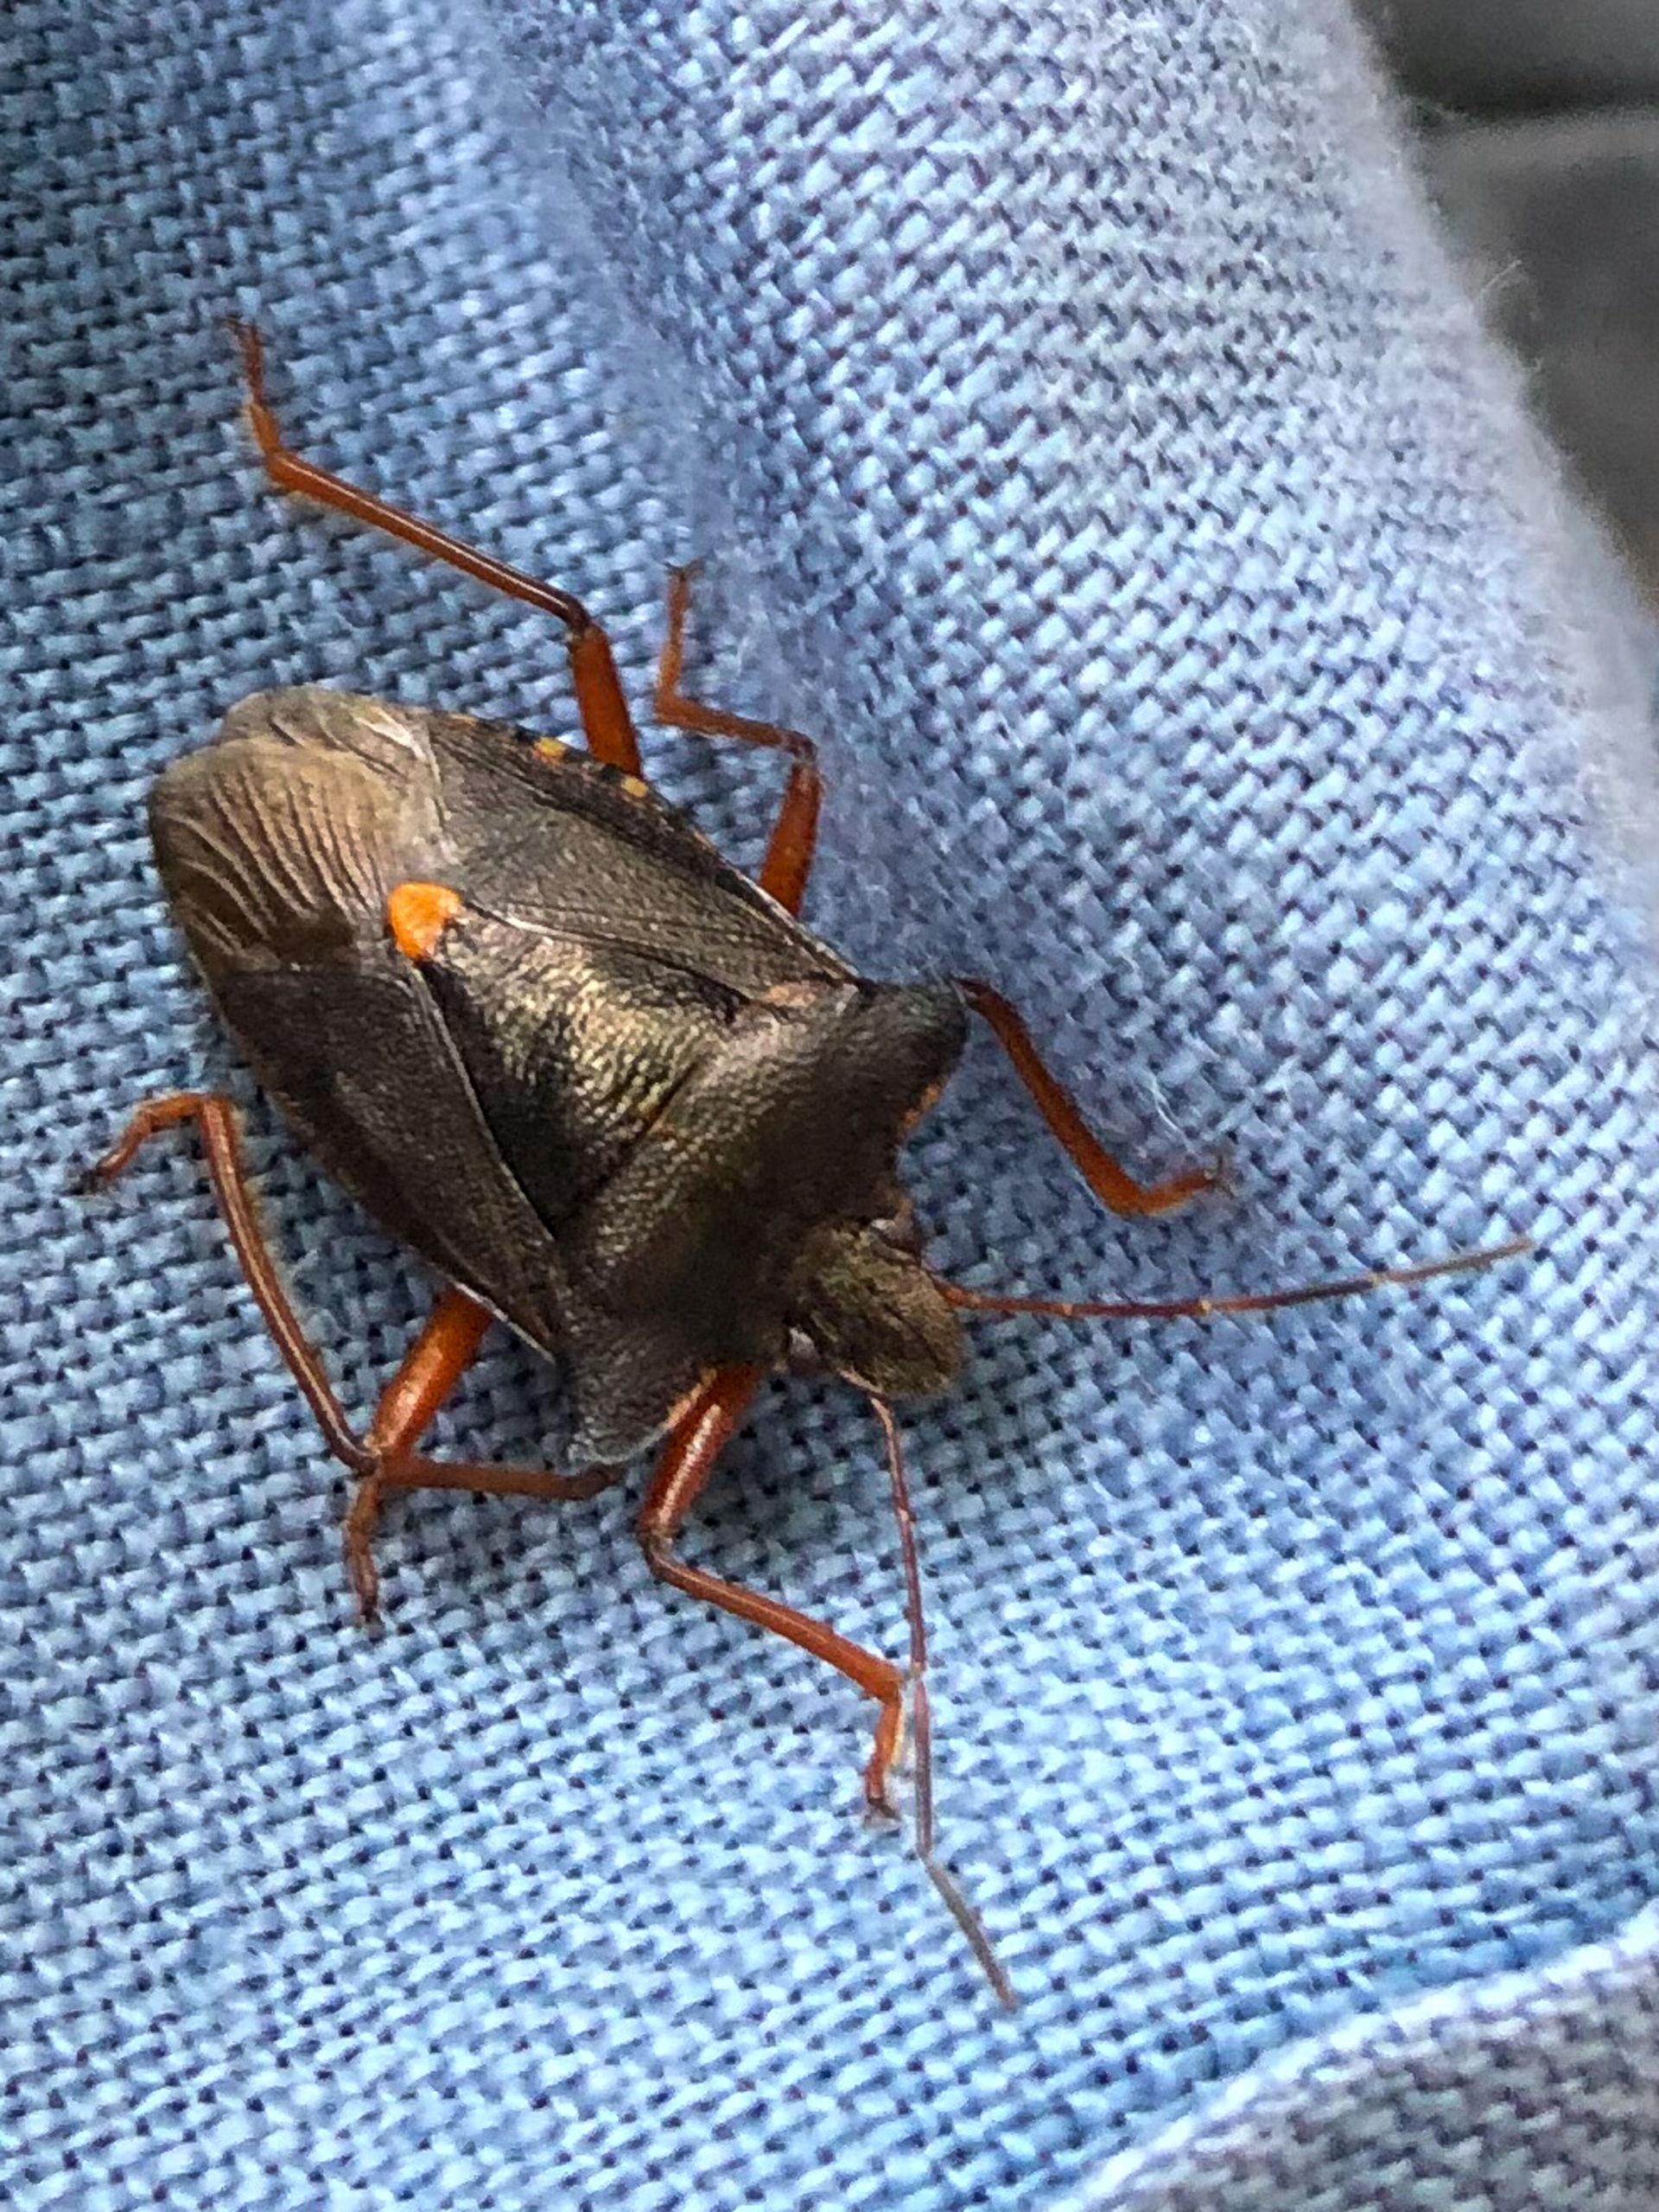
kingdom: Animalia
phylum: Arthropoda
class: Insecta
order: Hemiptera
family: Pentatomidae
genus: Pentatoma
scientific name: Pentatoma rufipes
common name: Rødbenet bredtæge
